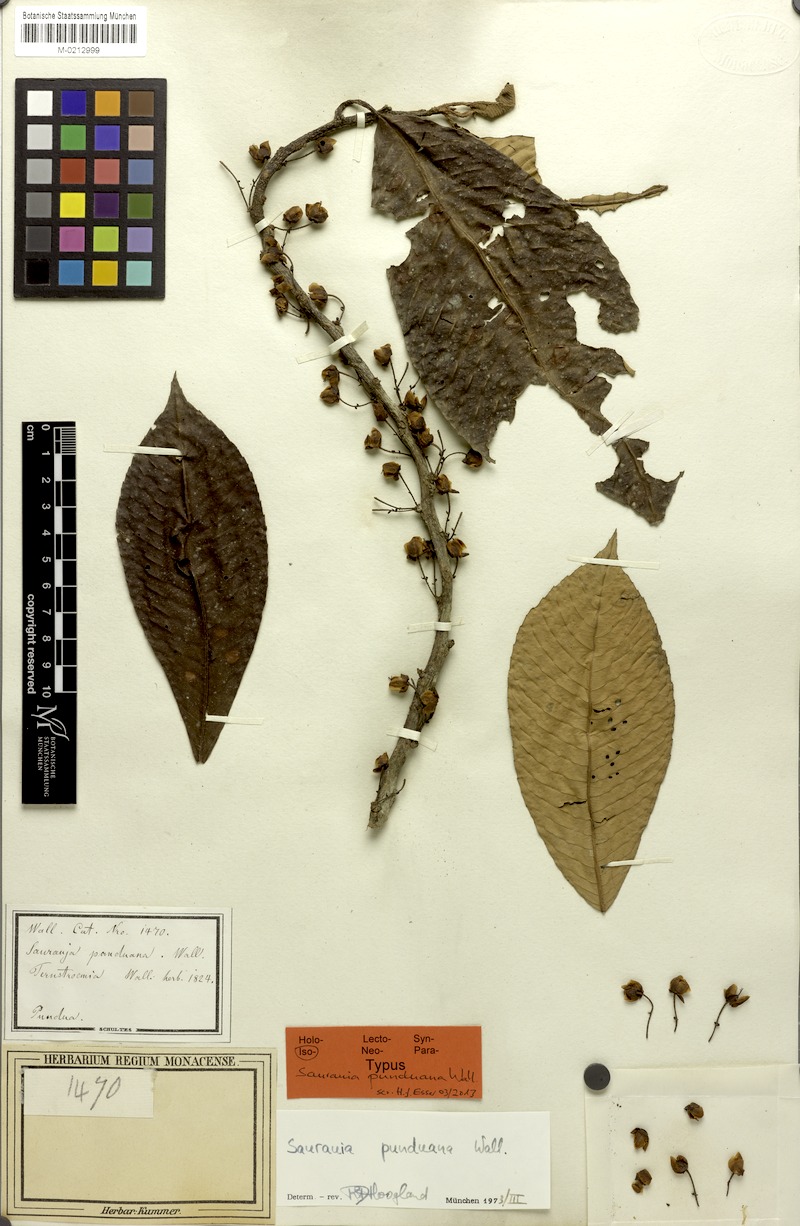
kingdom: Plantae
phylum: Tracheophyta
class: Magnoliopsida
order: Ericales
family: Actinidiaceae
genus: Saurauia
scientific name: Saurauia punduana
